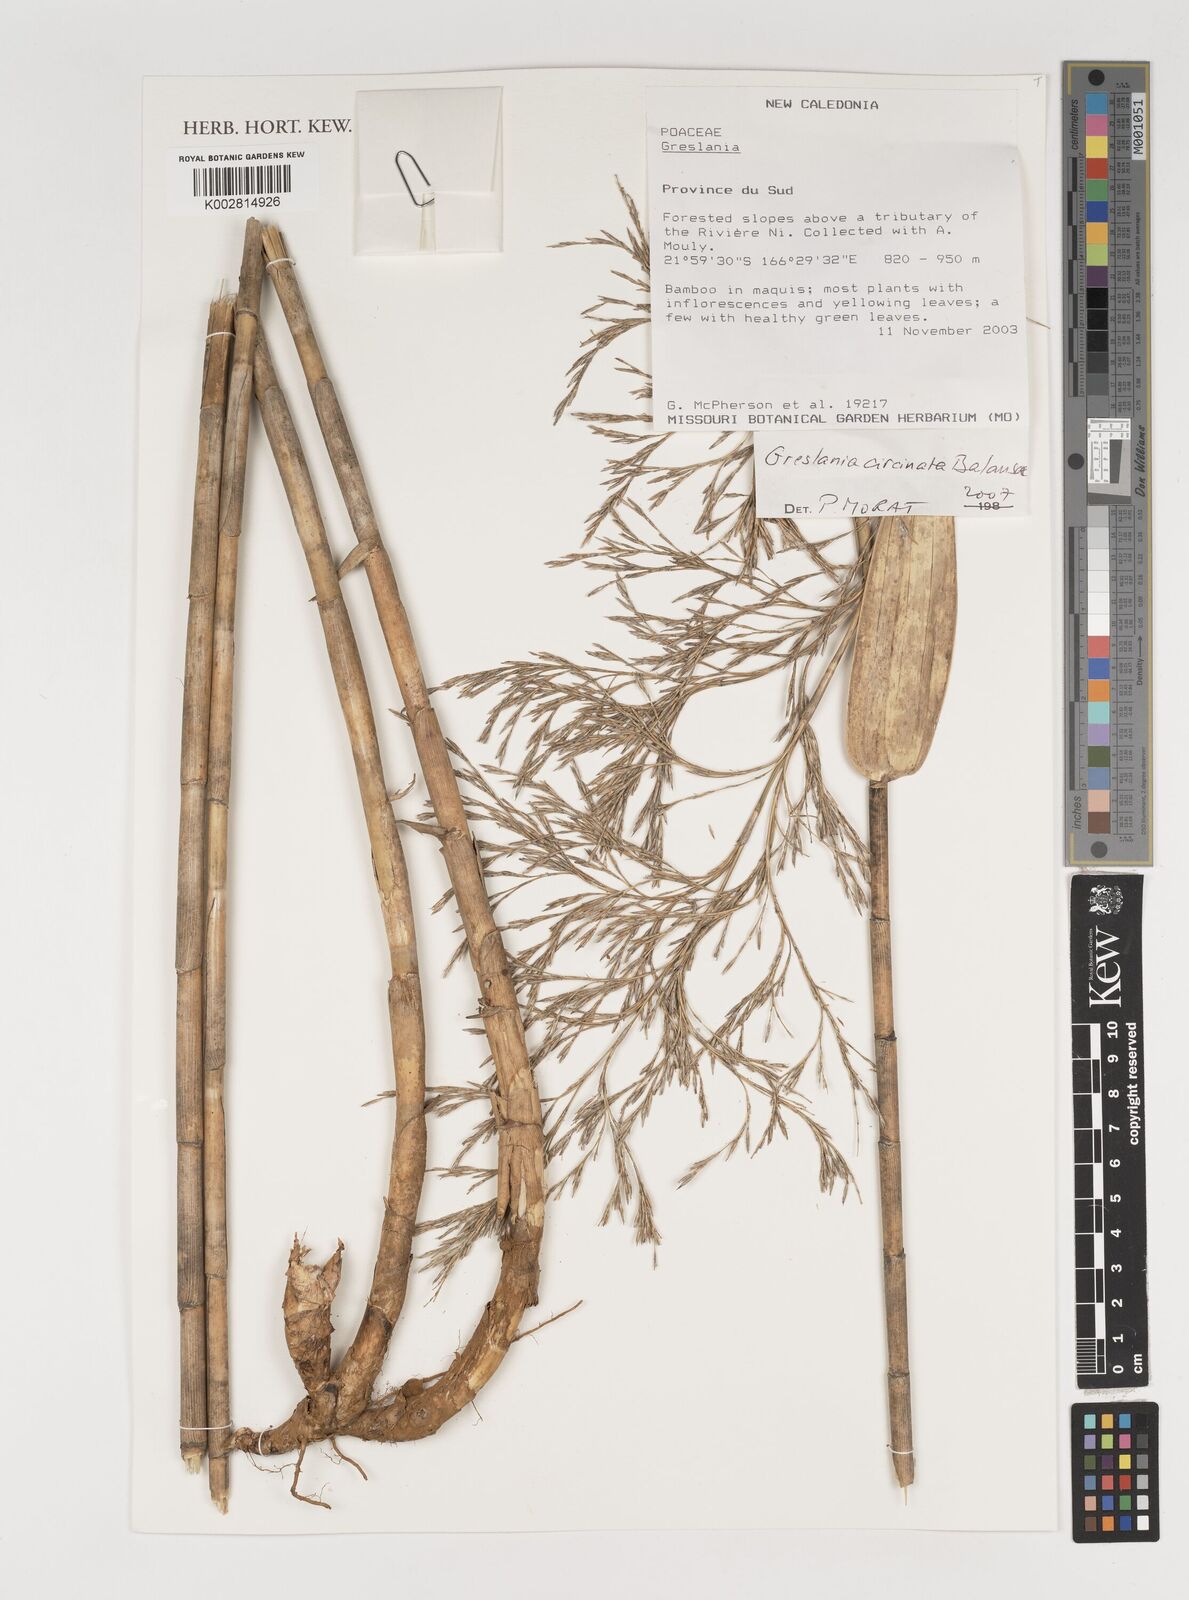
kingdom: Plantae
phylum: Tracheophyta
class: Liliopsida
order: Poales
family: Poaceae
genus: Greslania
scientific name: Greslania circinata
